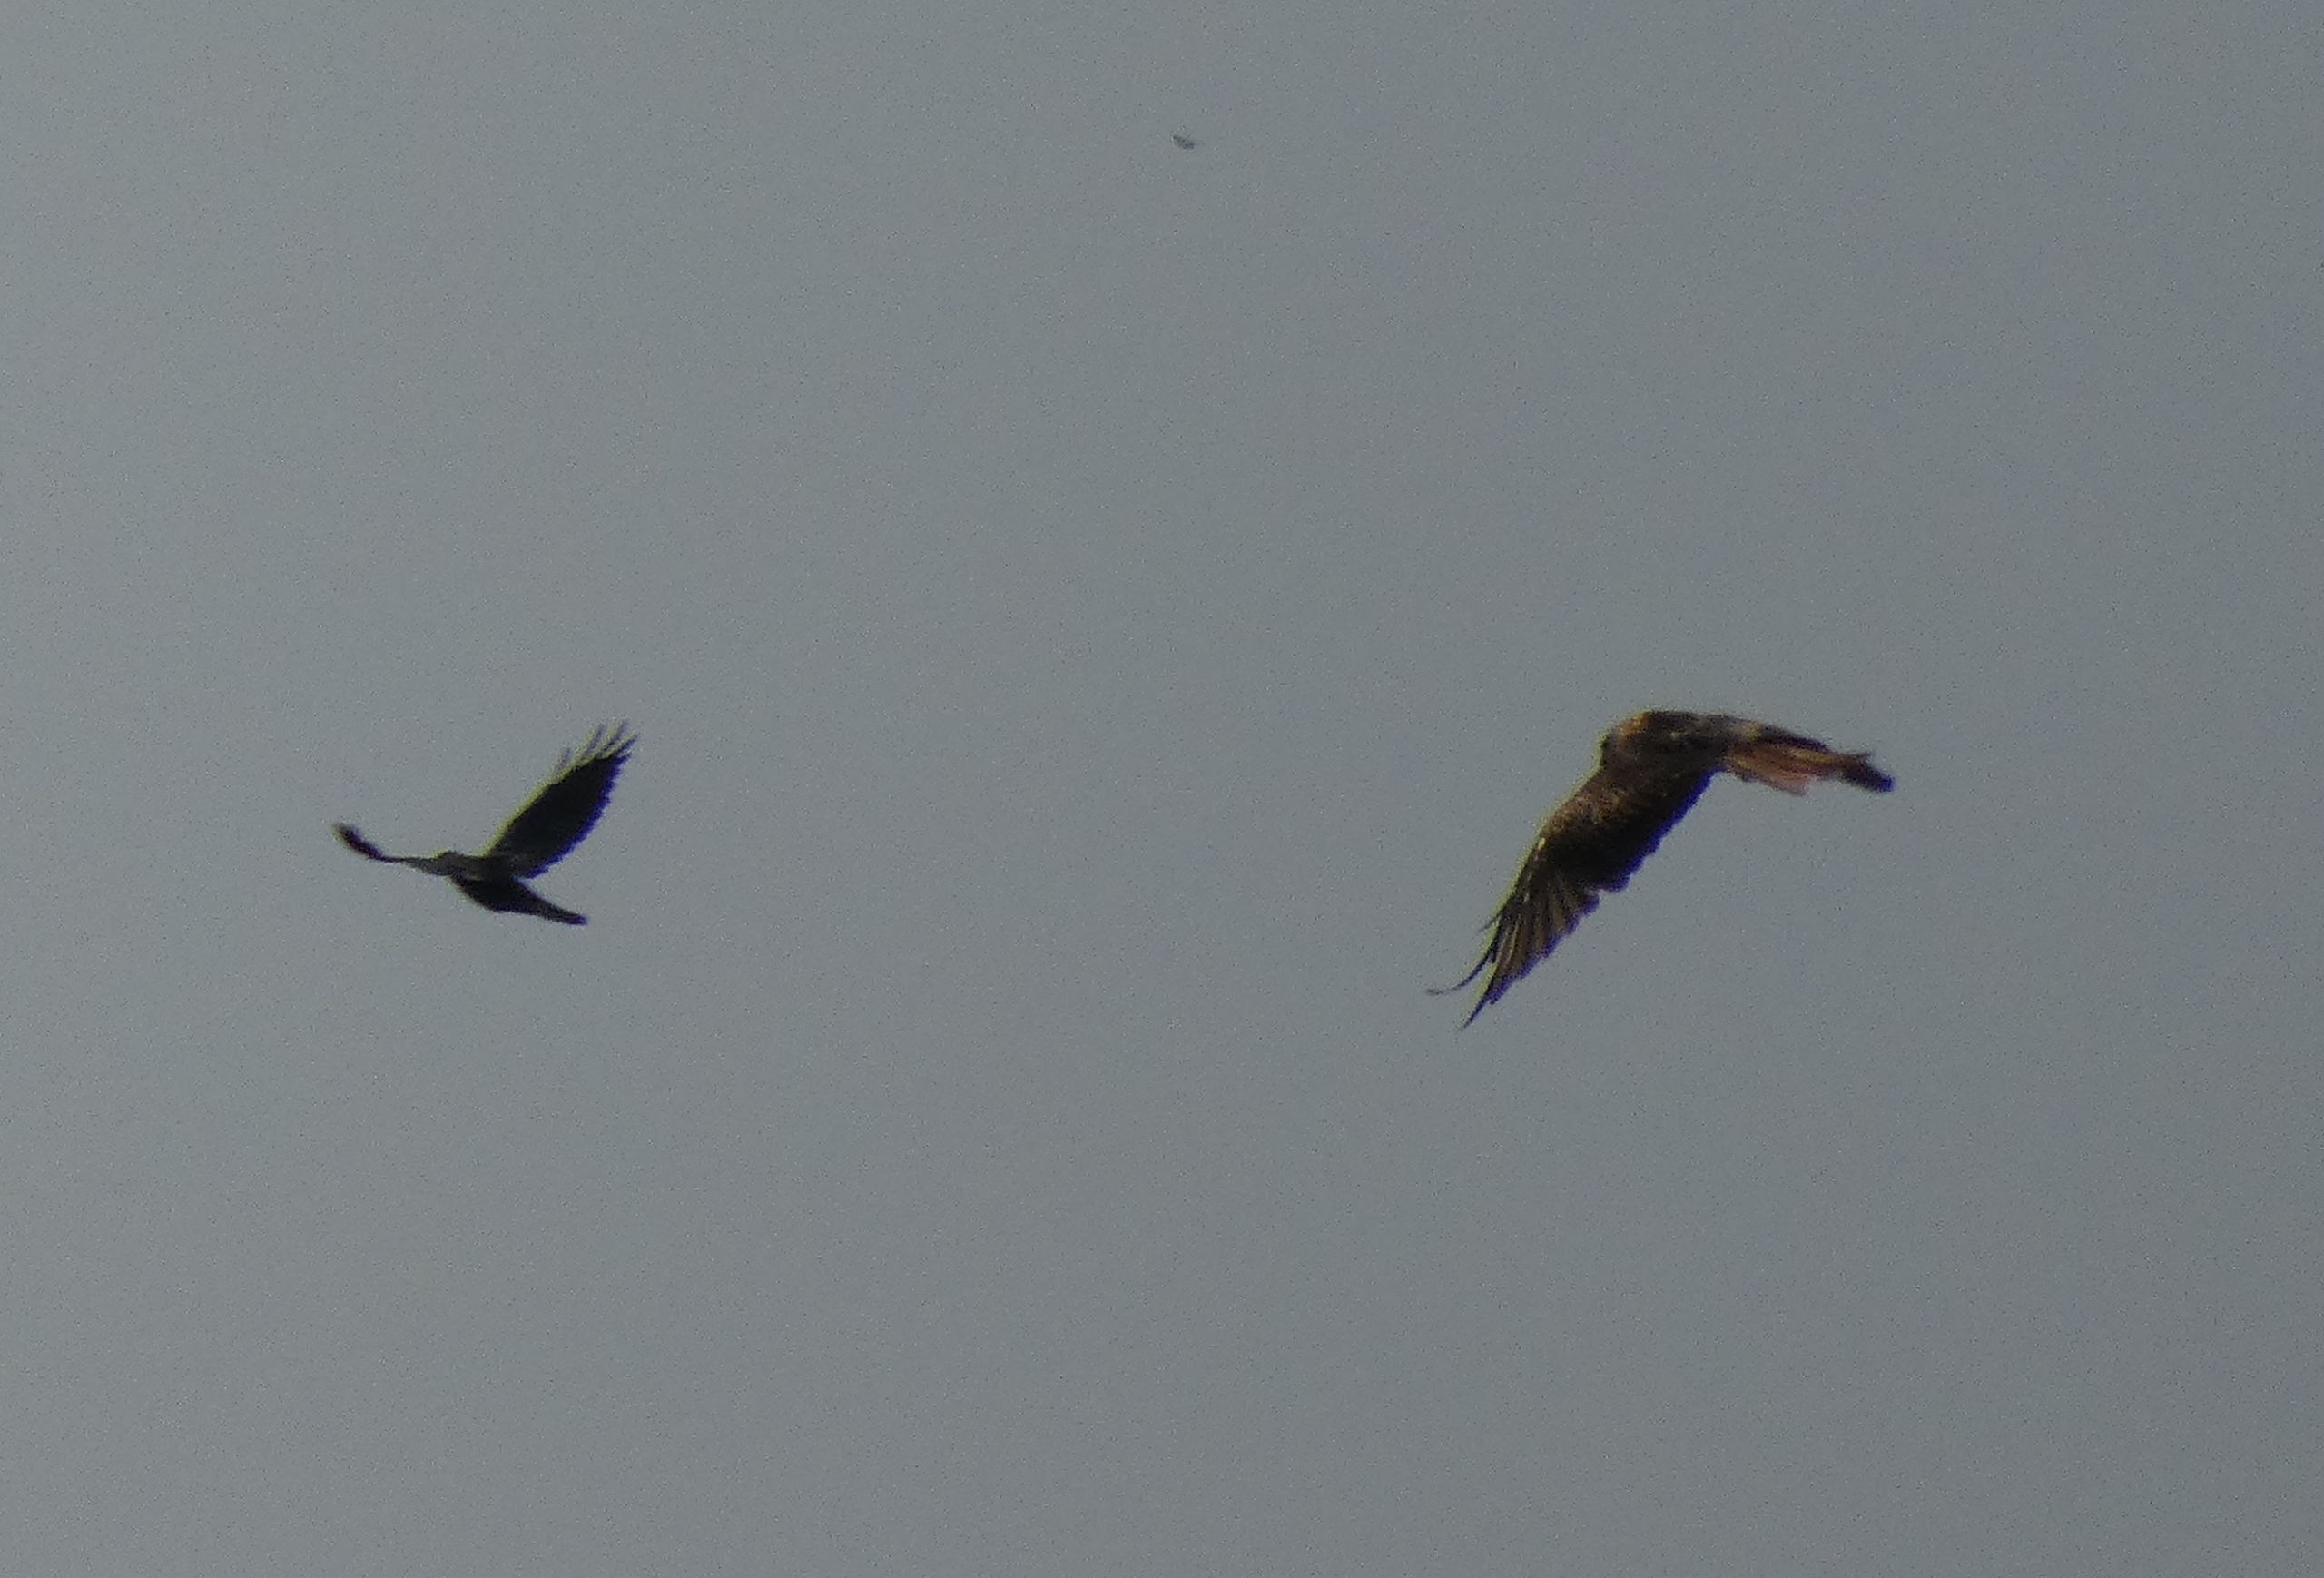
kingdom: Animalia
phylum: Chordata
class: Aves
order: Accipitriformes
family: Accipitridae
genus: Milvus
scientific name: Milvus milvus
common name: Rød glente
